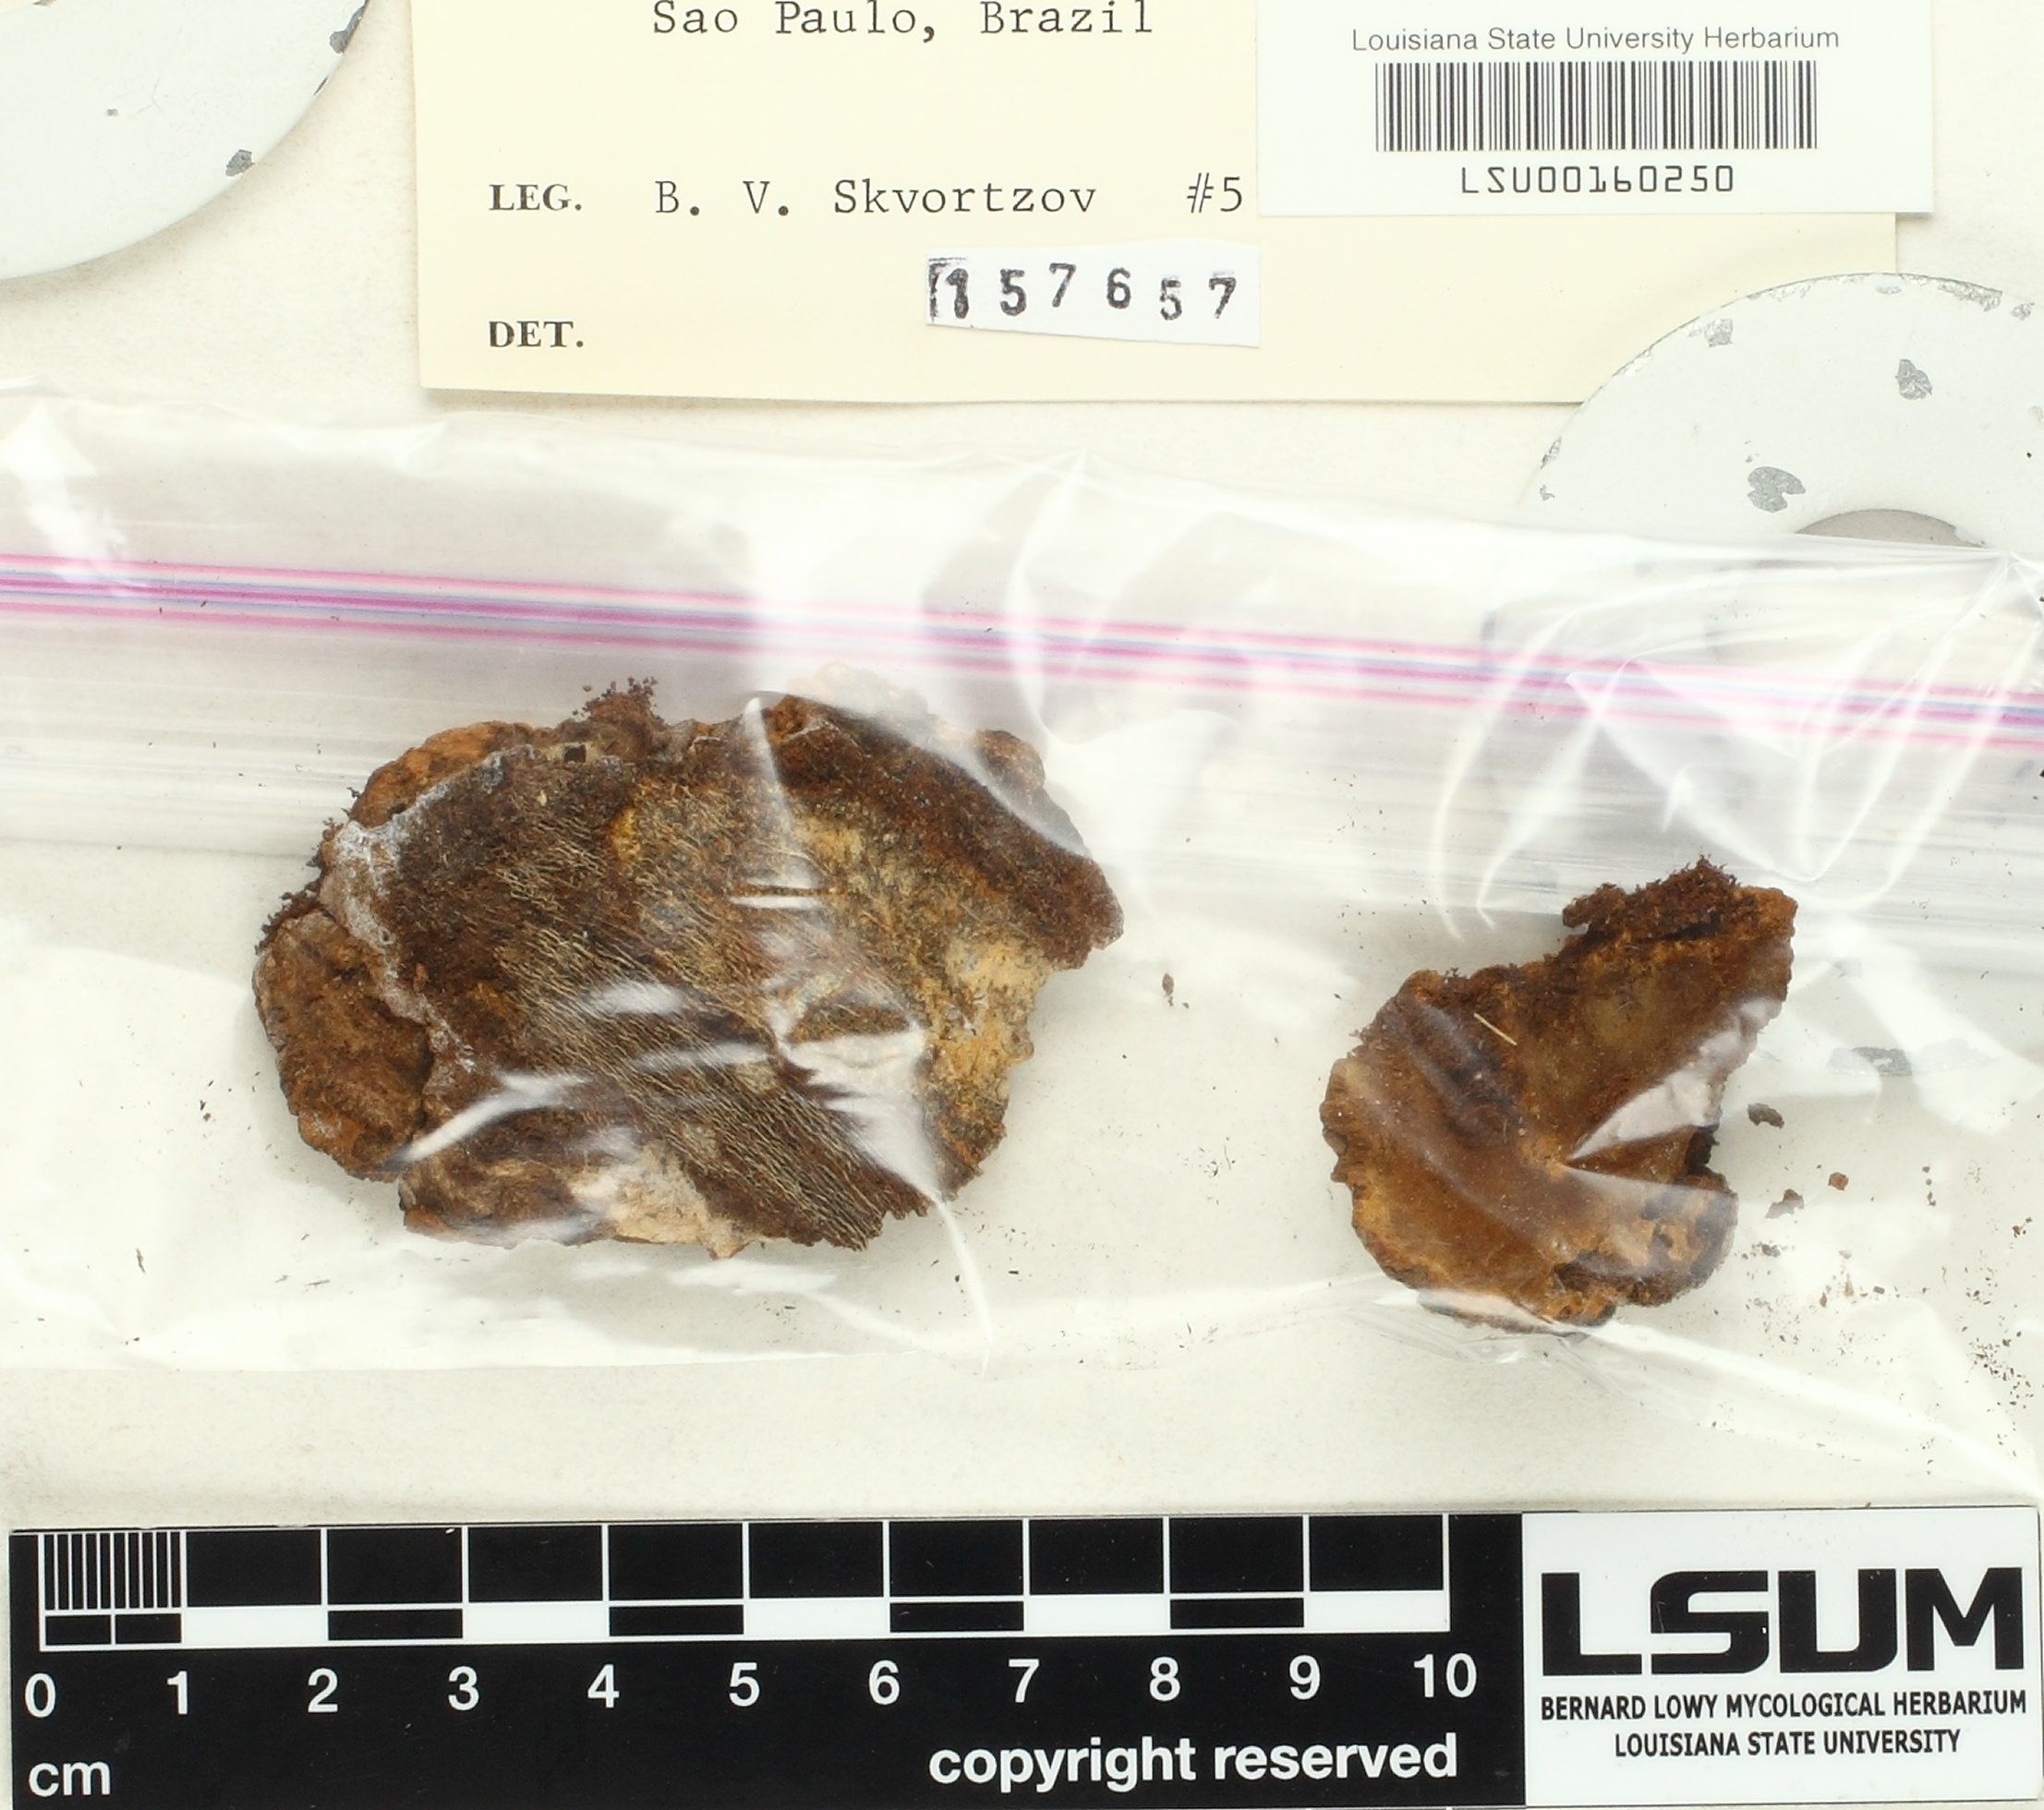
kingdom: Fungi
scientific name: Fungi
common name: Fungi
